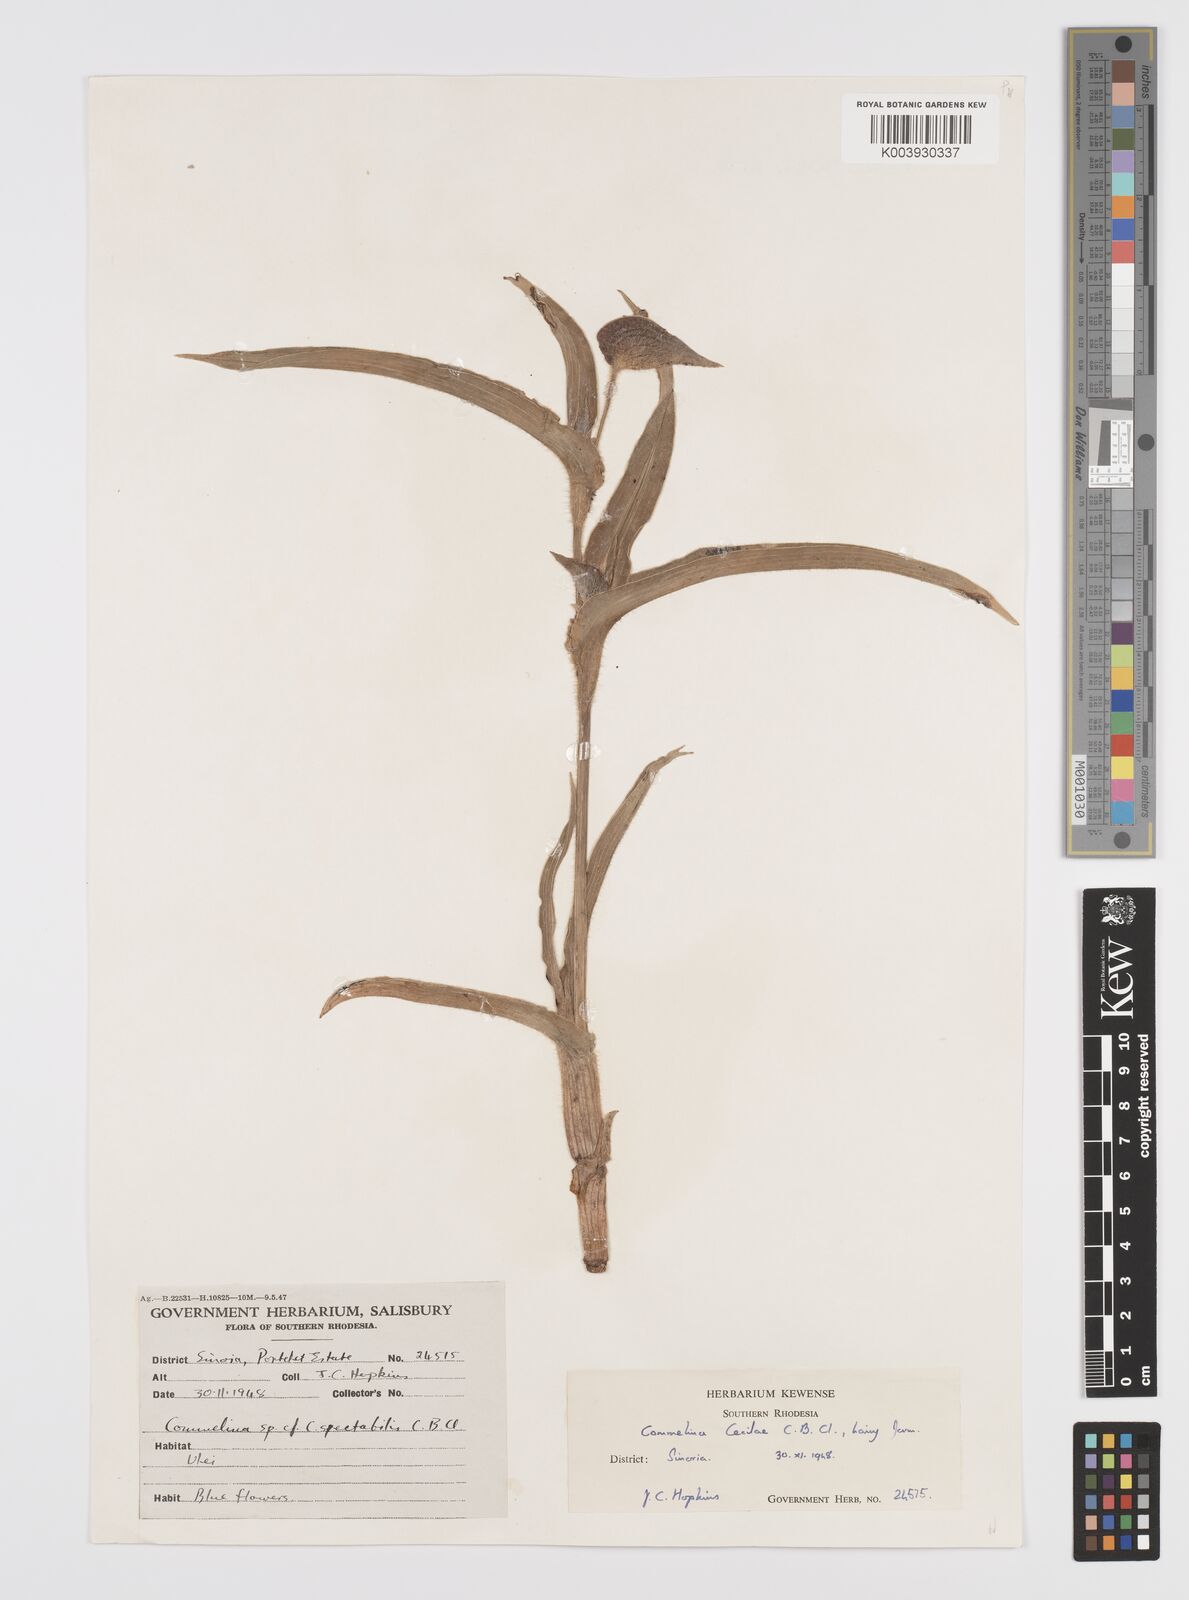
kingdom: Plantae
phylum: Tracheophyta
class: Liliopsida
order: Commelinales
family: Commelinaceae
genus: Commelina
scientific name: Commelina cecilae
